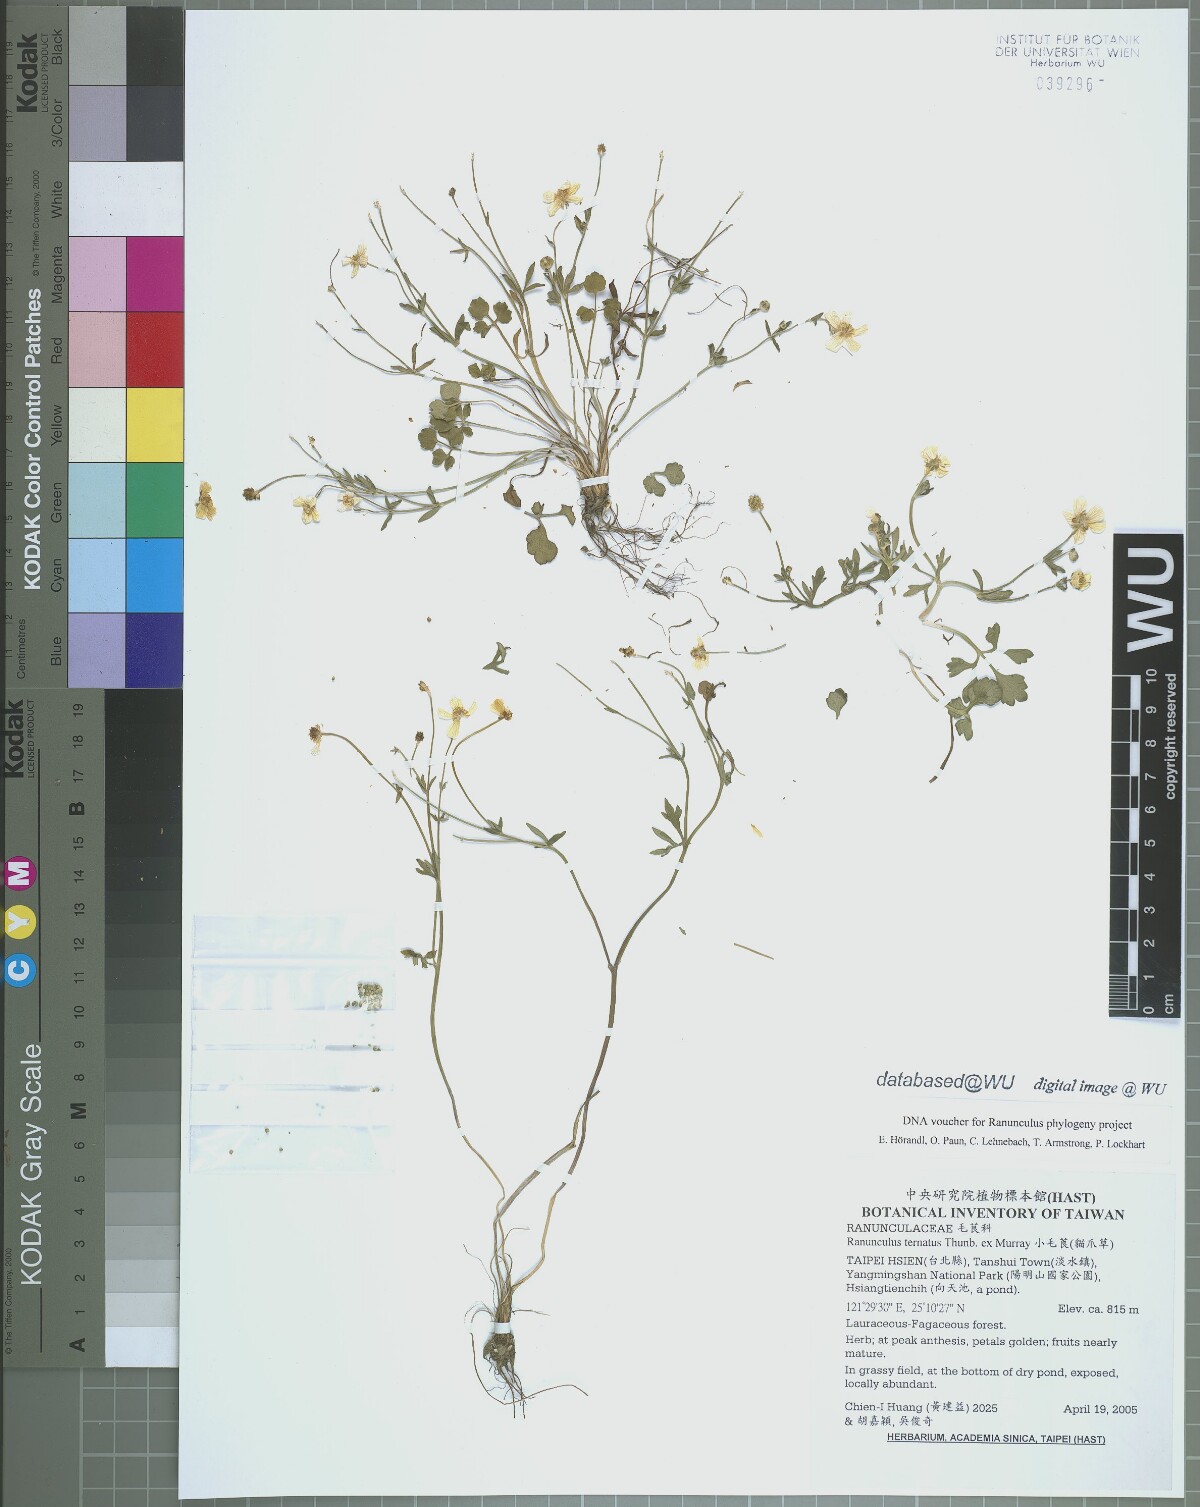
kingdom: Plantae
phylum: Tracheophyta
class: Magnoliopsida
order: Ranunculales
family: Ranunculaceae
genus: Ranunculus
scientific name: Ranunculus ternatus
